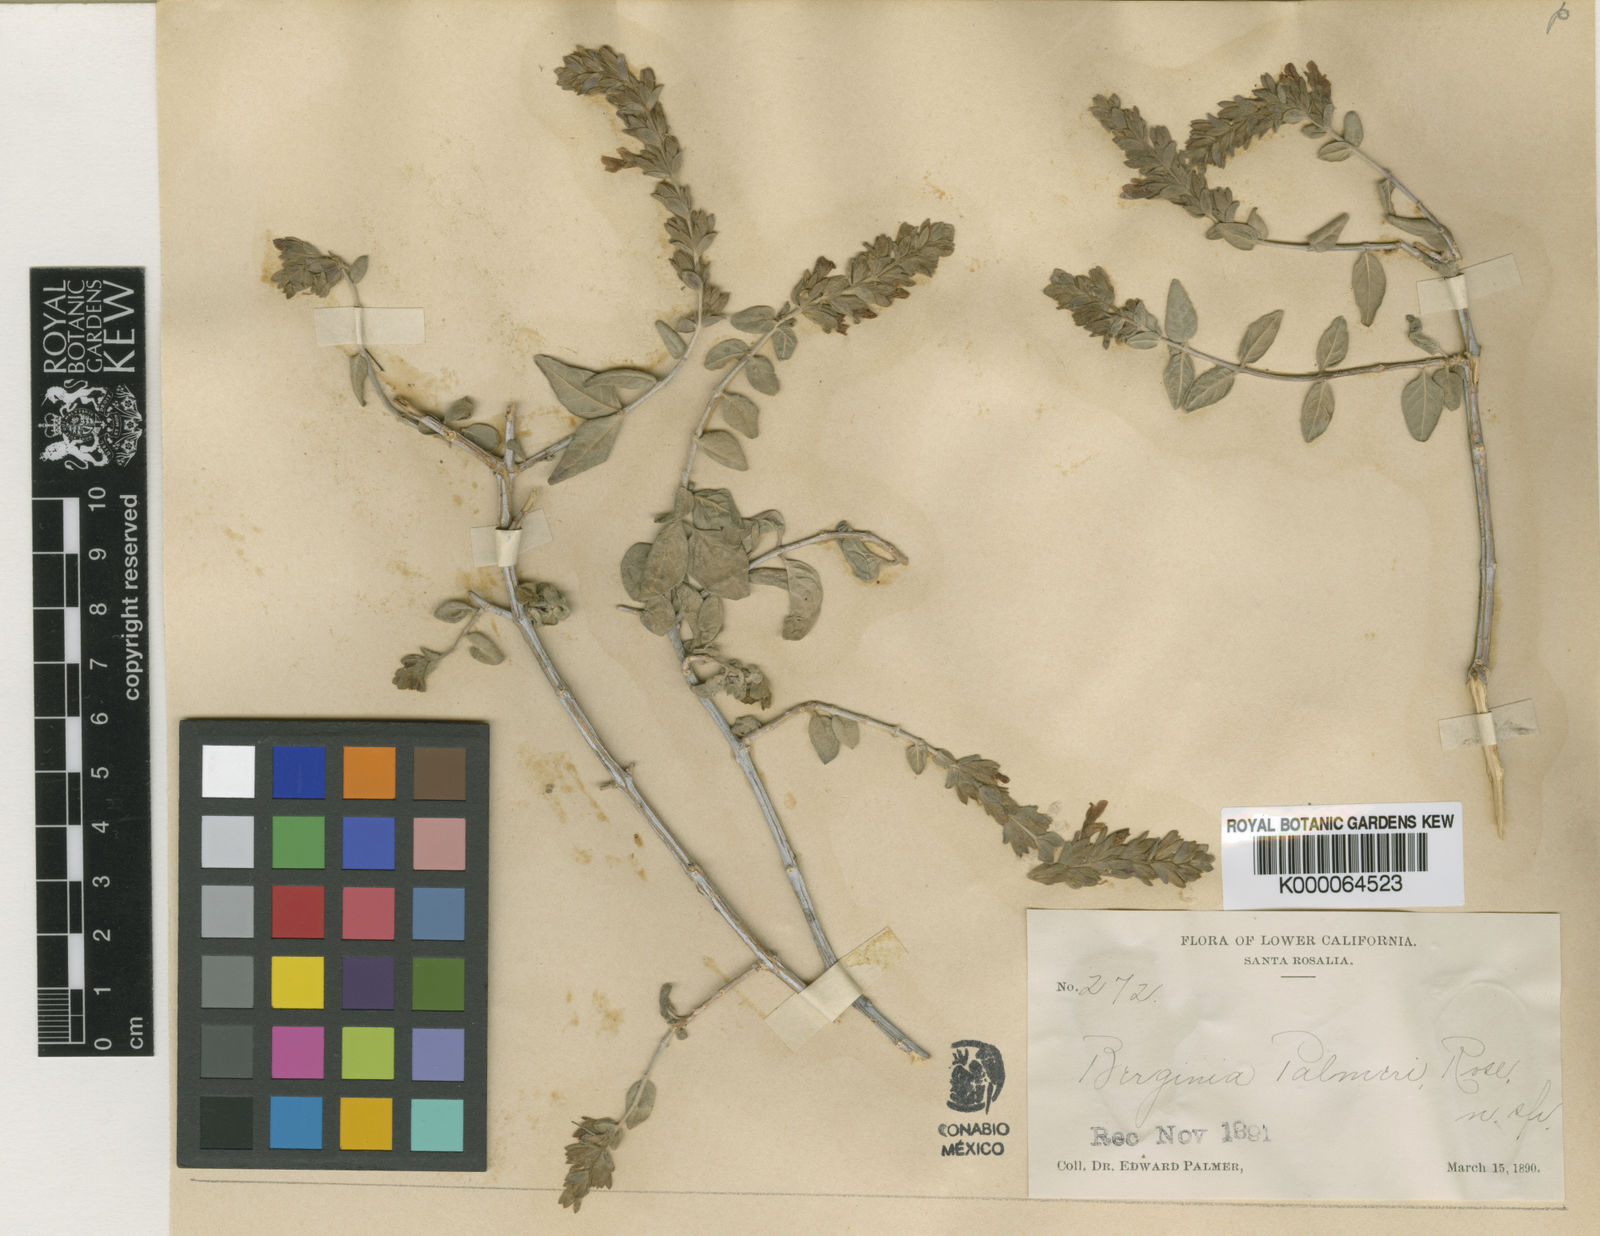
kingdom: Plantae
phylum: Tracheophyta
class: Magnoliopsida
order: Lamiales
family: Acanthaceae
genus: Holographis
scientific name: Holographis virgata
